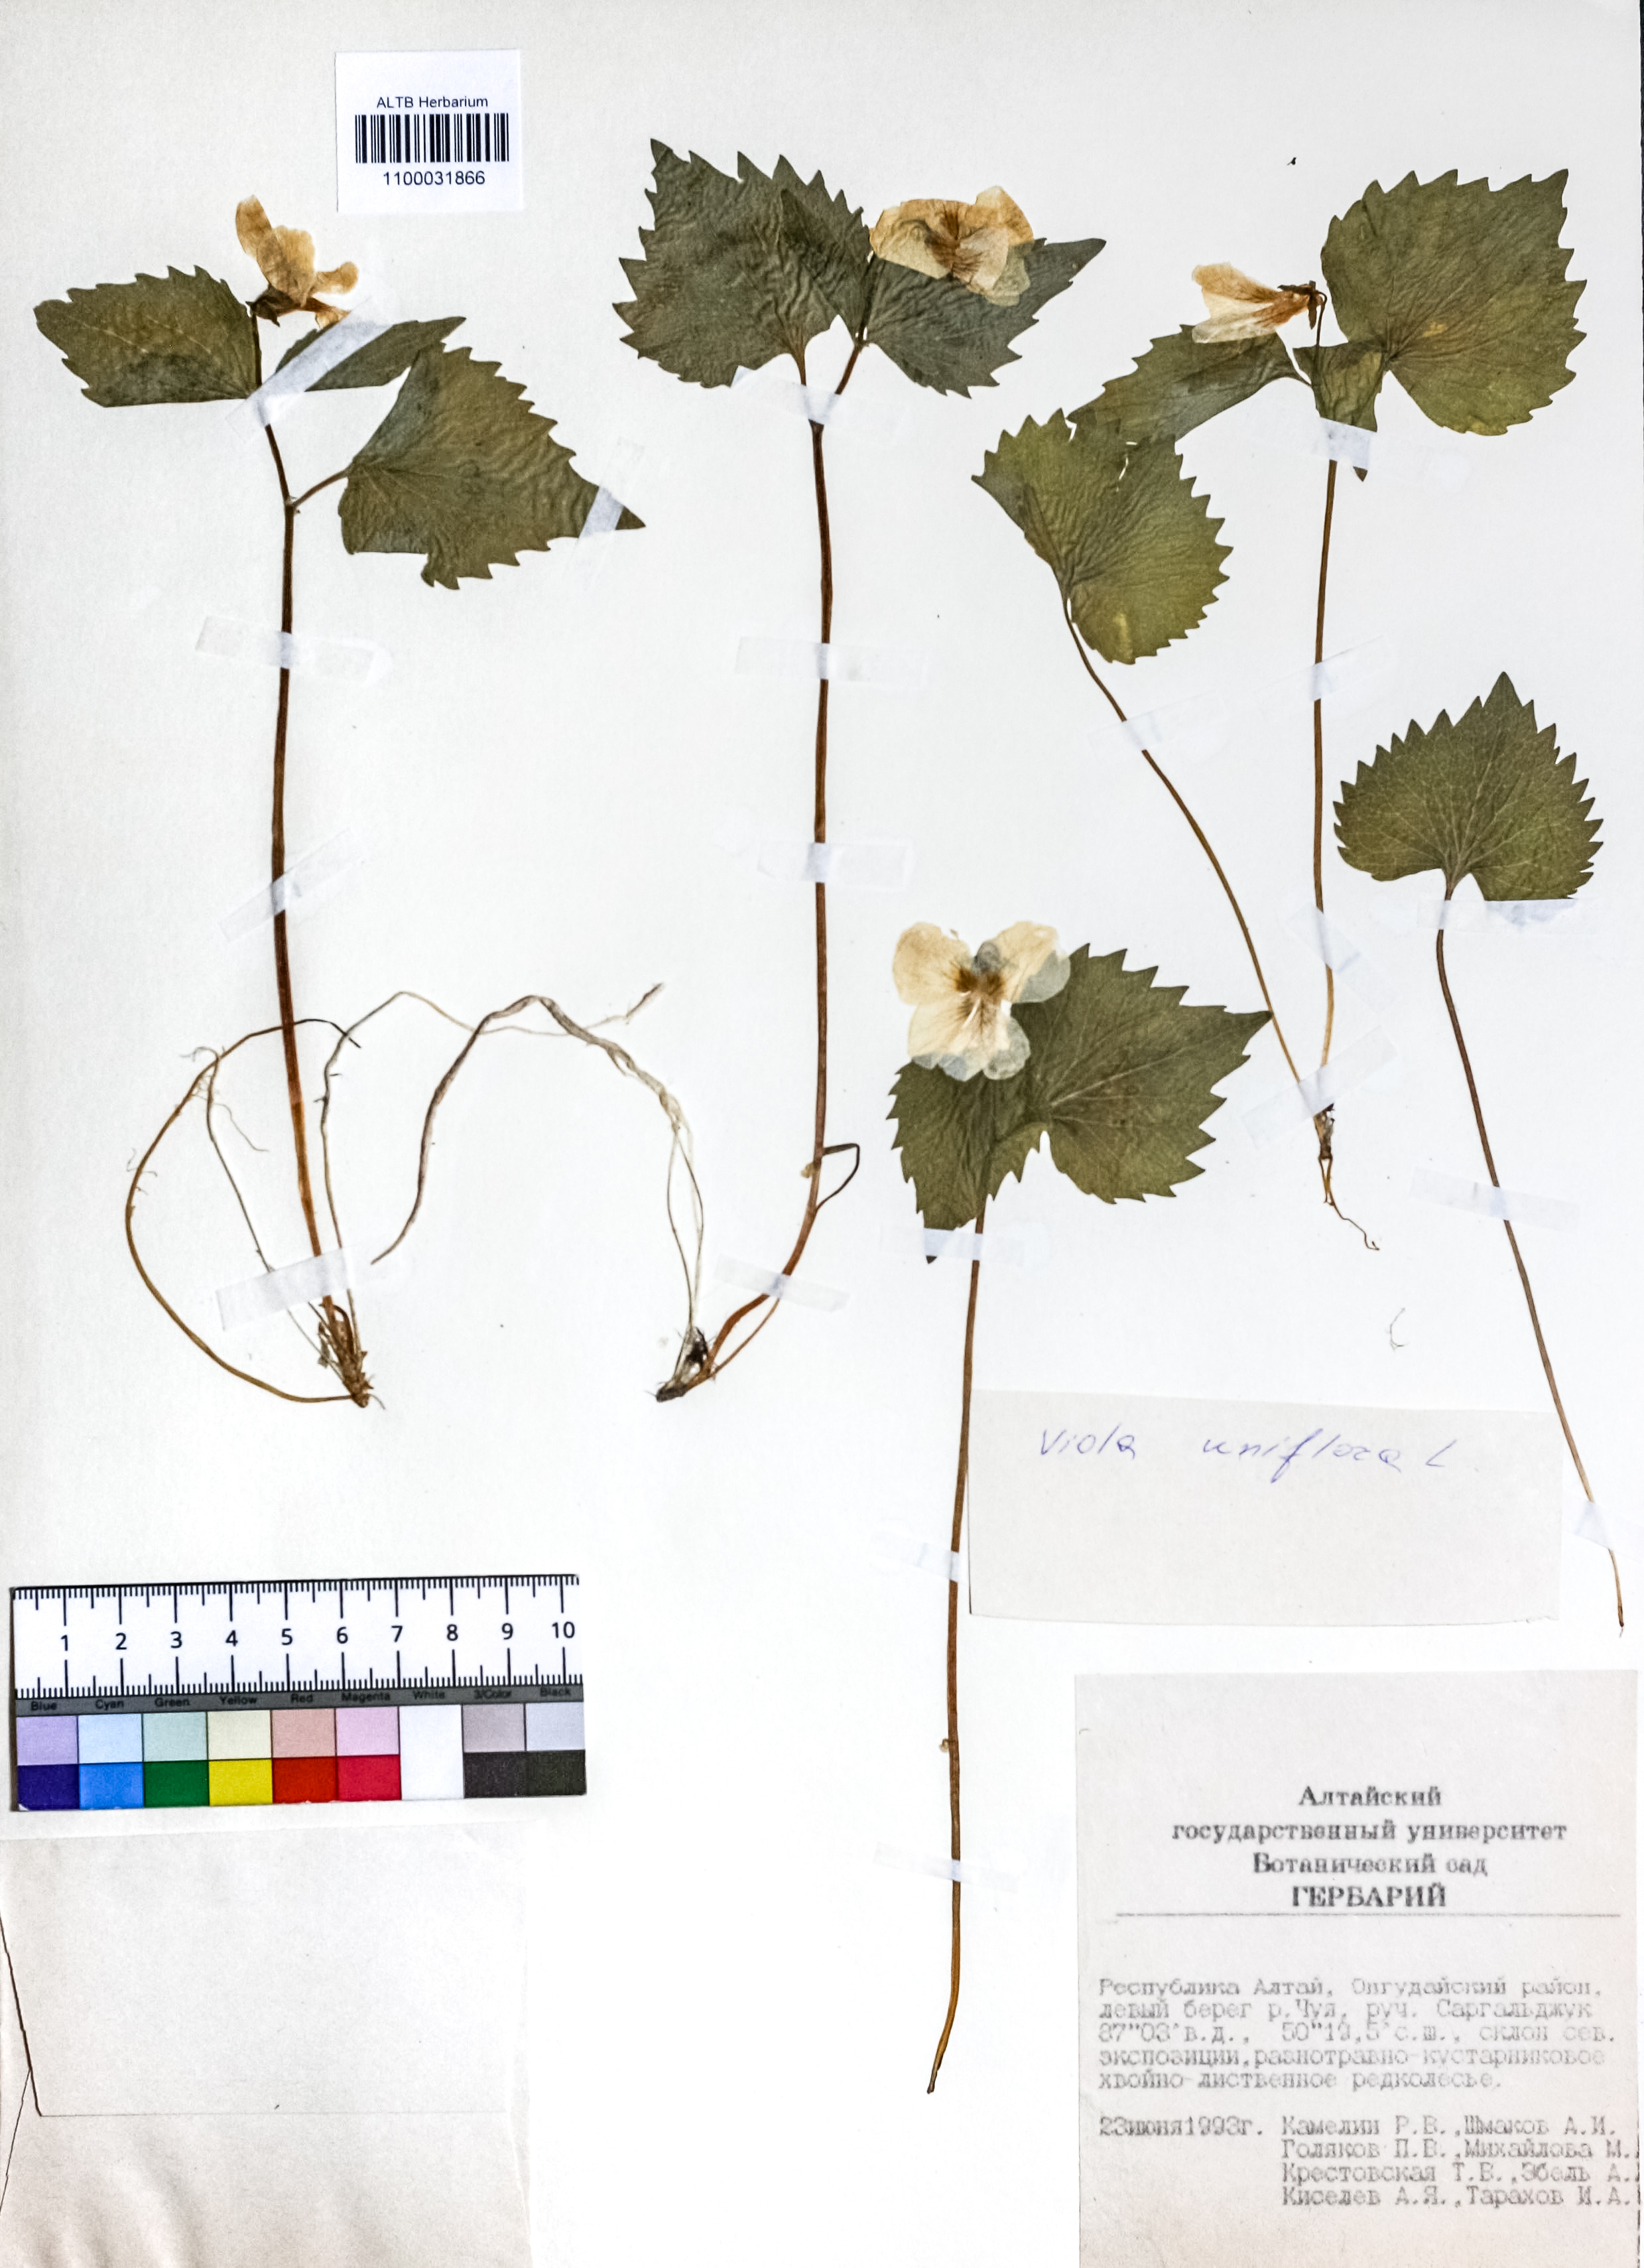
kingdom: Plantae
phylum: Tracheophyta
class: Magnoliopsida
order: Malpighiales
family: Violaceae
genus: Viola
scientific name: Viola uniflora
